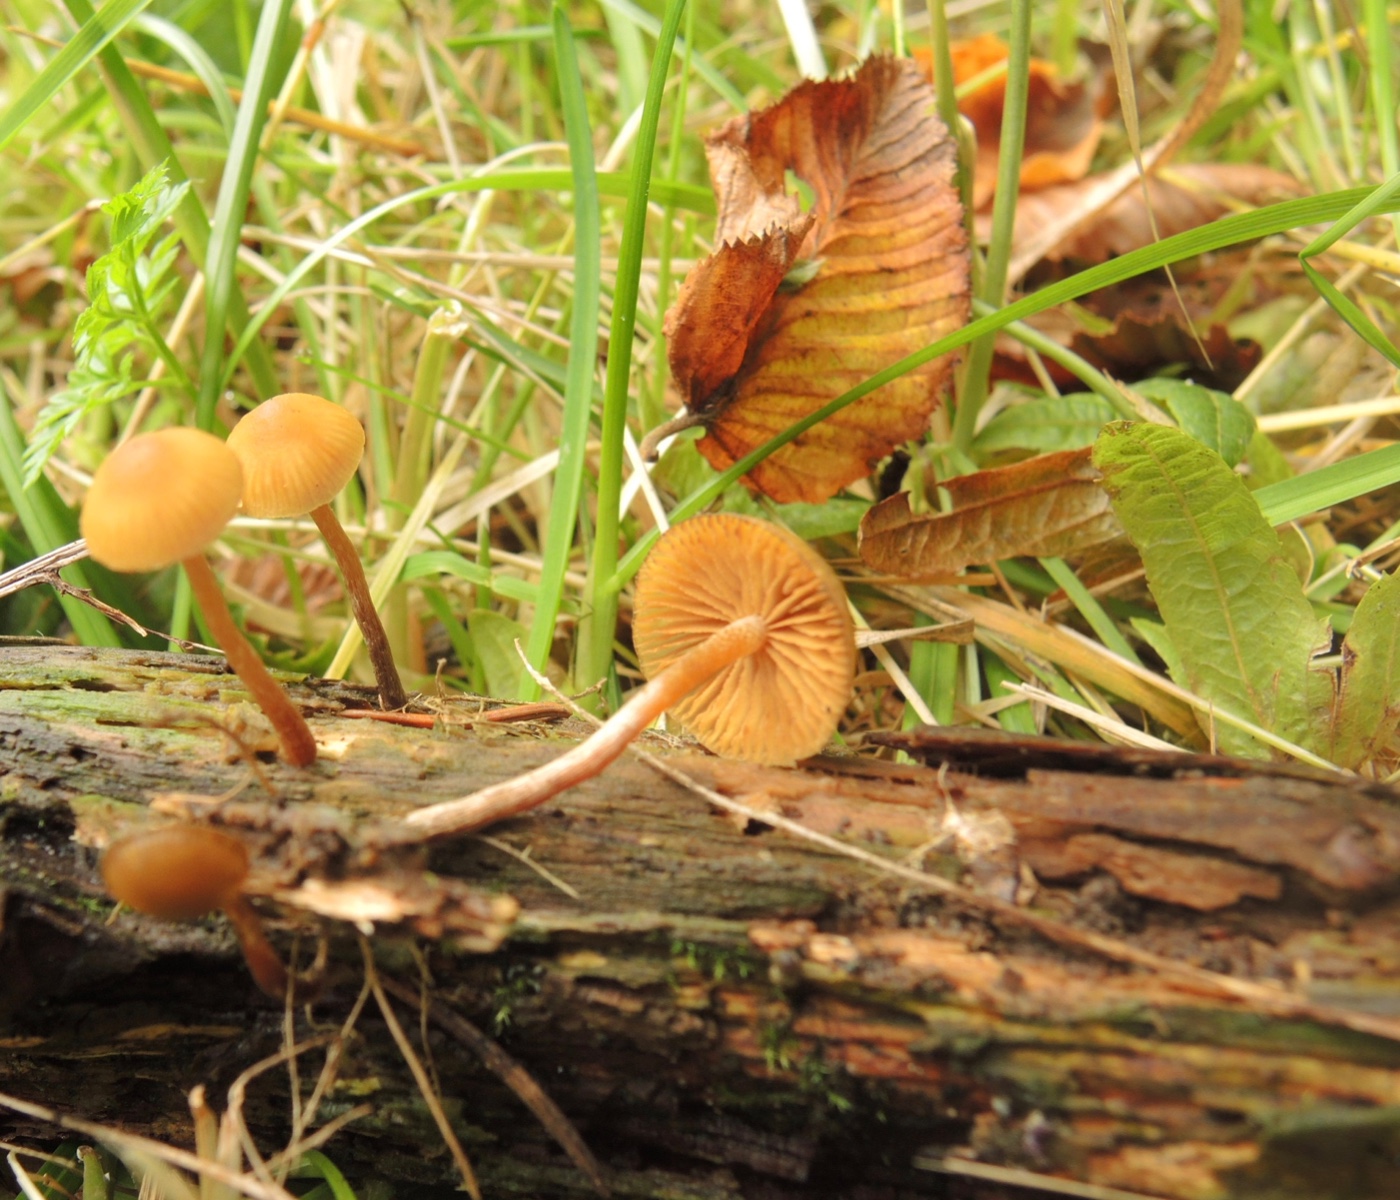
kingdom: Fungi
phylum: Basidiomycota
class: Agaricomycetes
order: Agaricales
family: Hymenogastraceae
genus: Galerina
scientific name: Galerina badipes
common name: brunstokket hjelmhat
